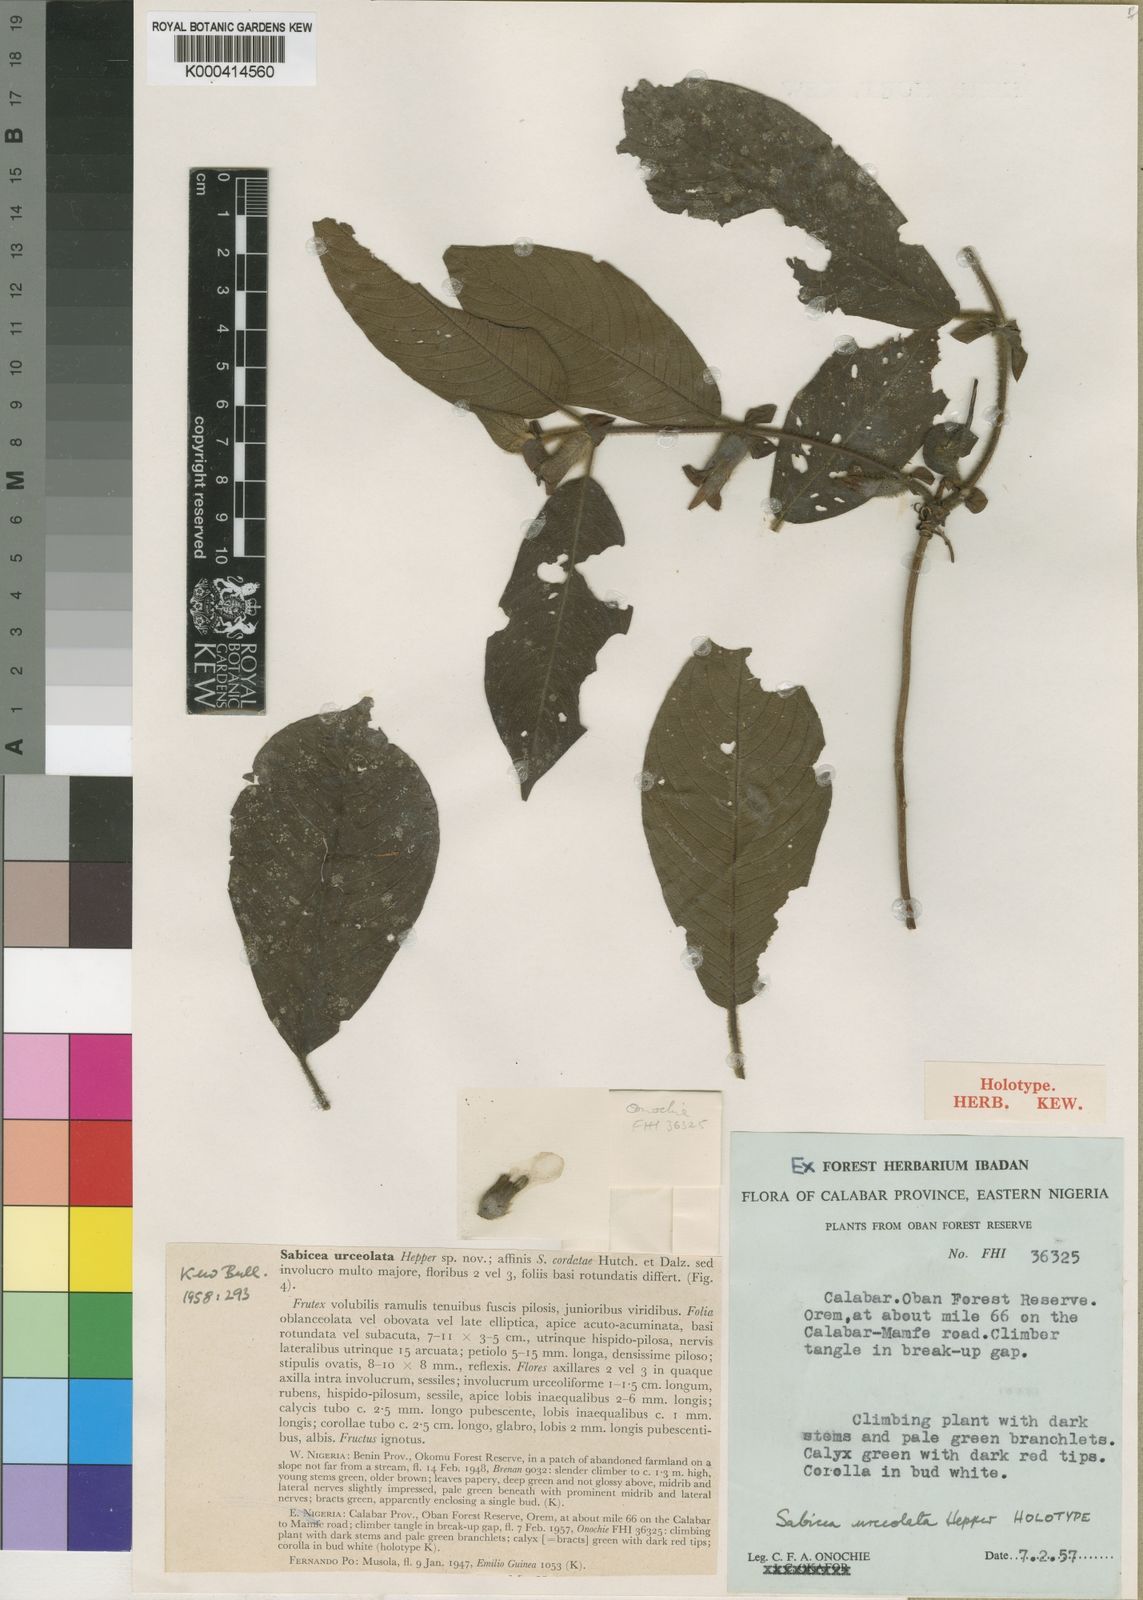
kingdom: Plantae
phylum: Tracheophyta
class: Magnoliopsida
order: Gentianales
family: Rubiaceae
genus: Sabicea
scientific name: Sabicea urceolata
